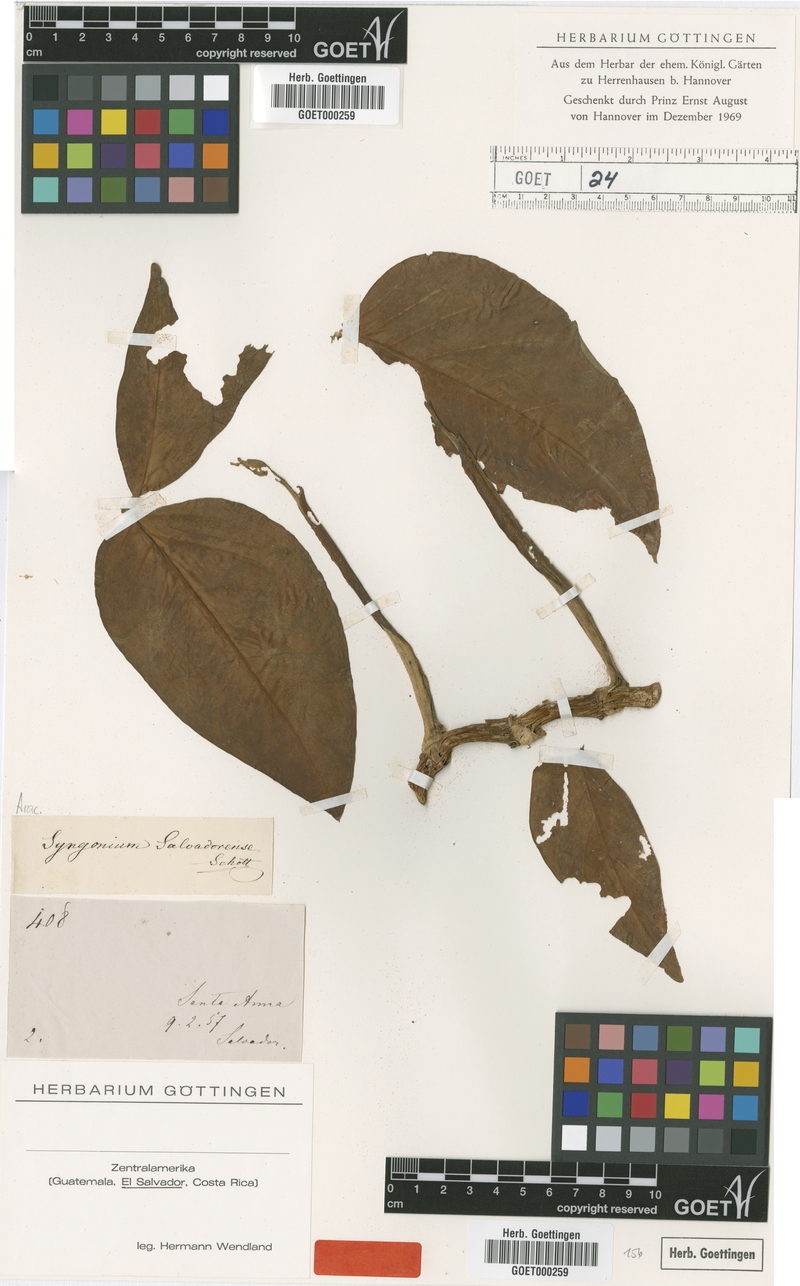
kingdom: Plantae
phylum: Tracheophyta
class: Liliopsida
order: Alismatales
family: Araceae
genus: Syngonium
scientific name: Syngonium salvadorense
